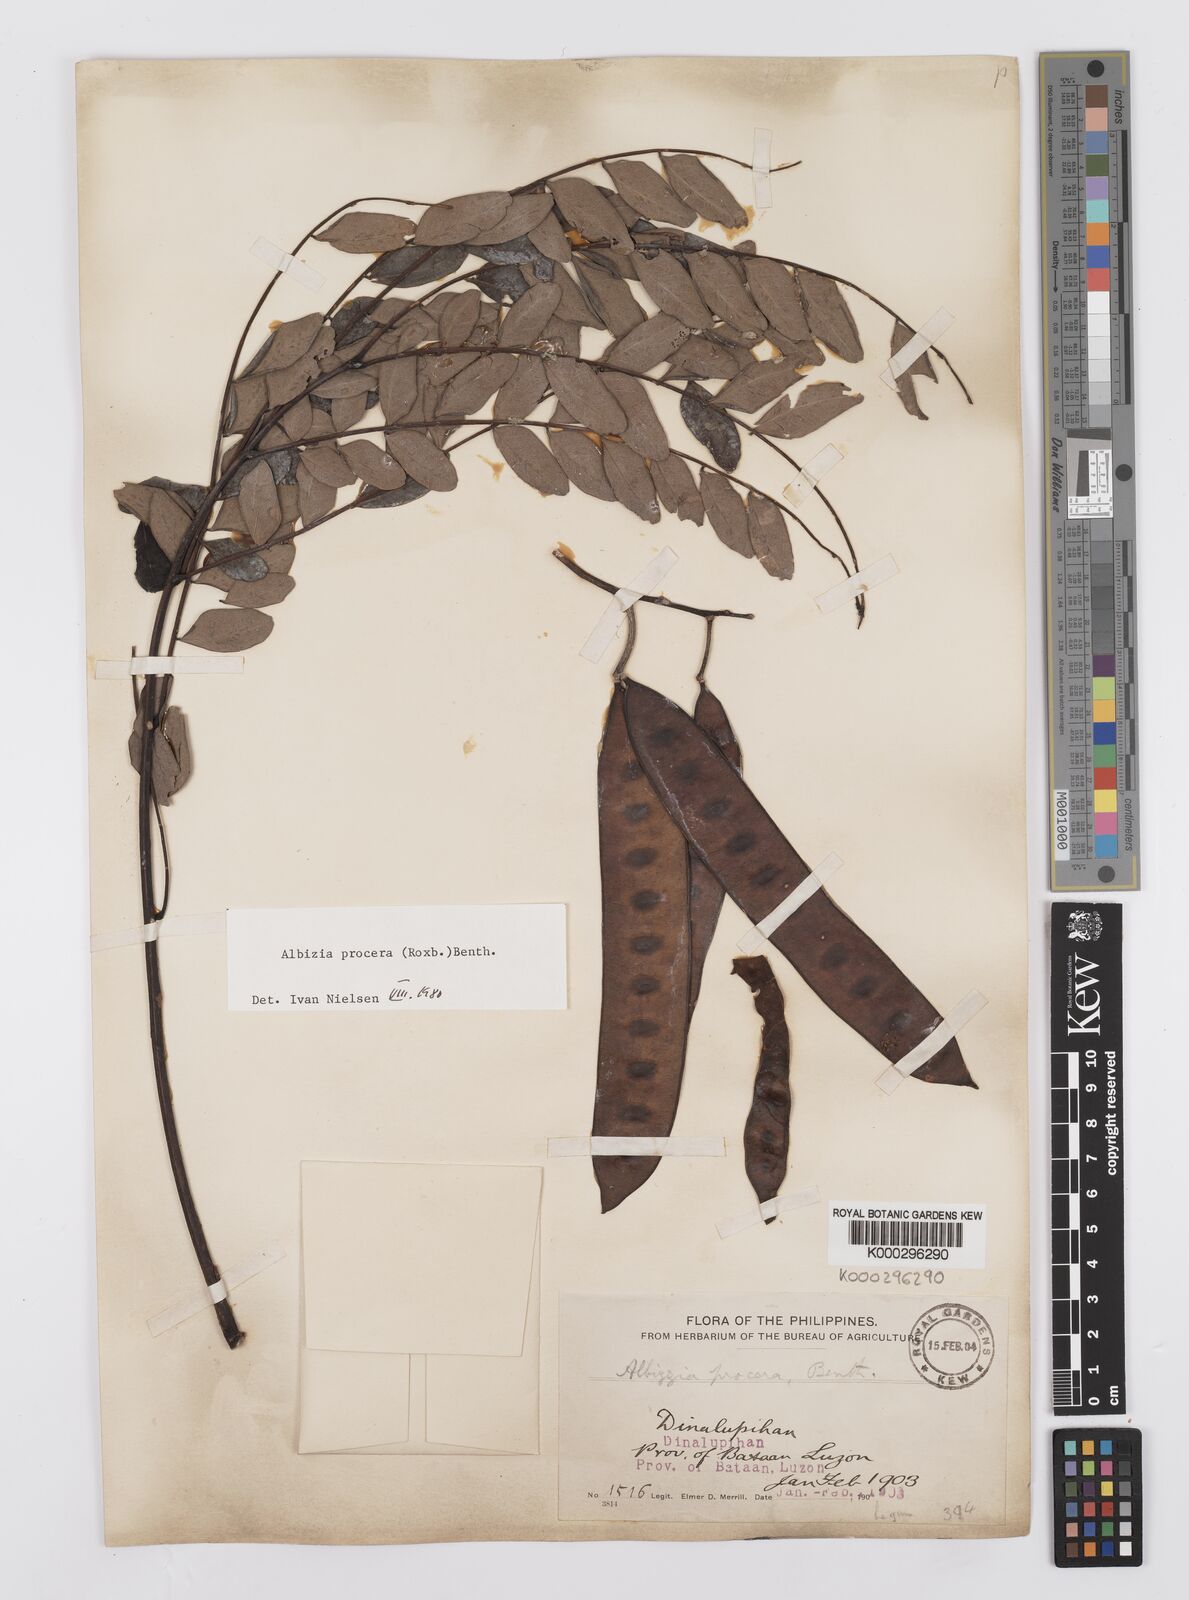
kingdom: Plantae
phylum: Tracheophyta
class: Magnoliopsida
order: Fabales
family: Fabaceae
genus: Albizia
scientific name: Albizia procera
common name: Tall albizia
